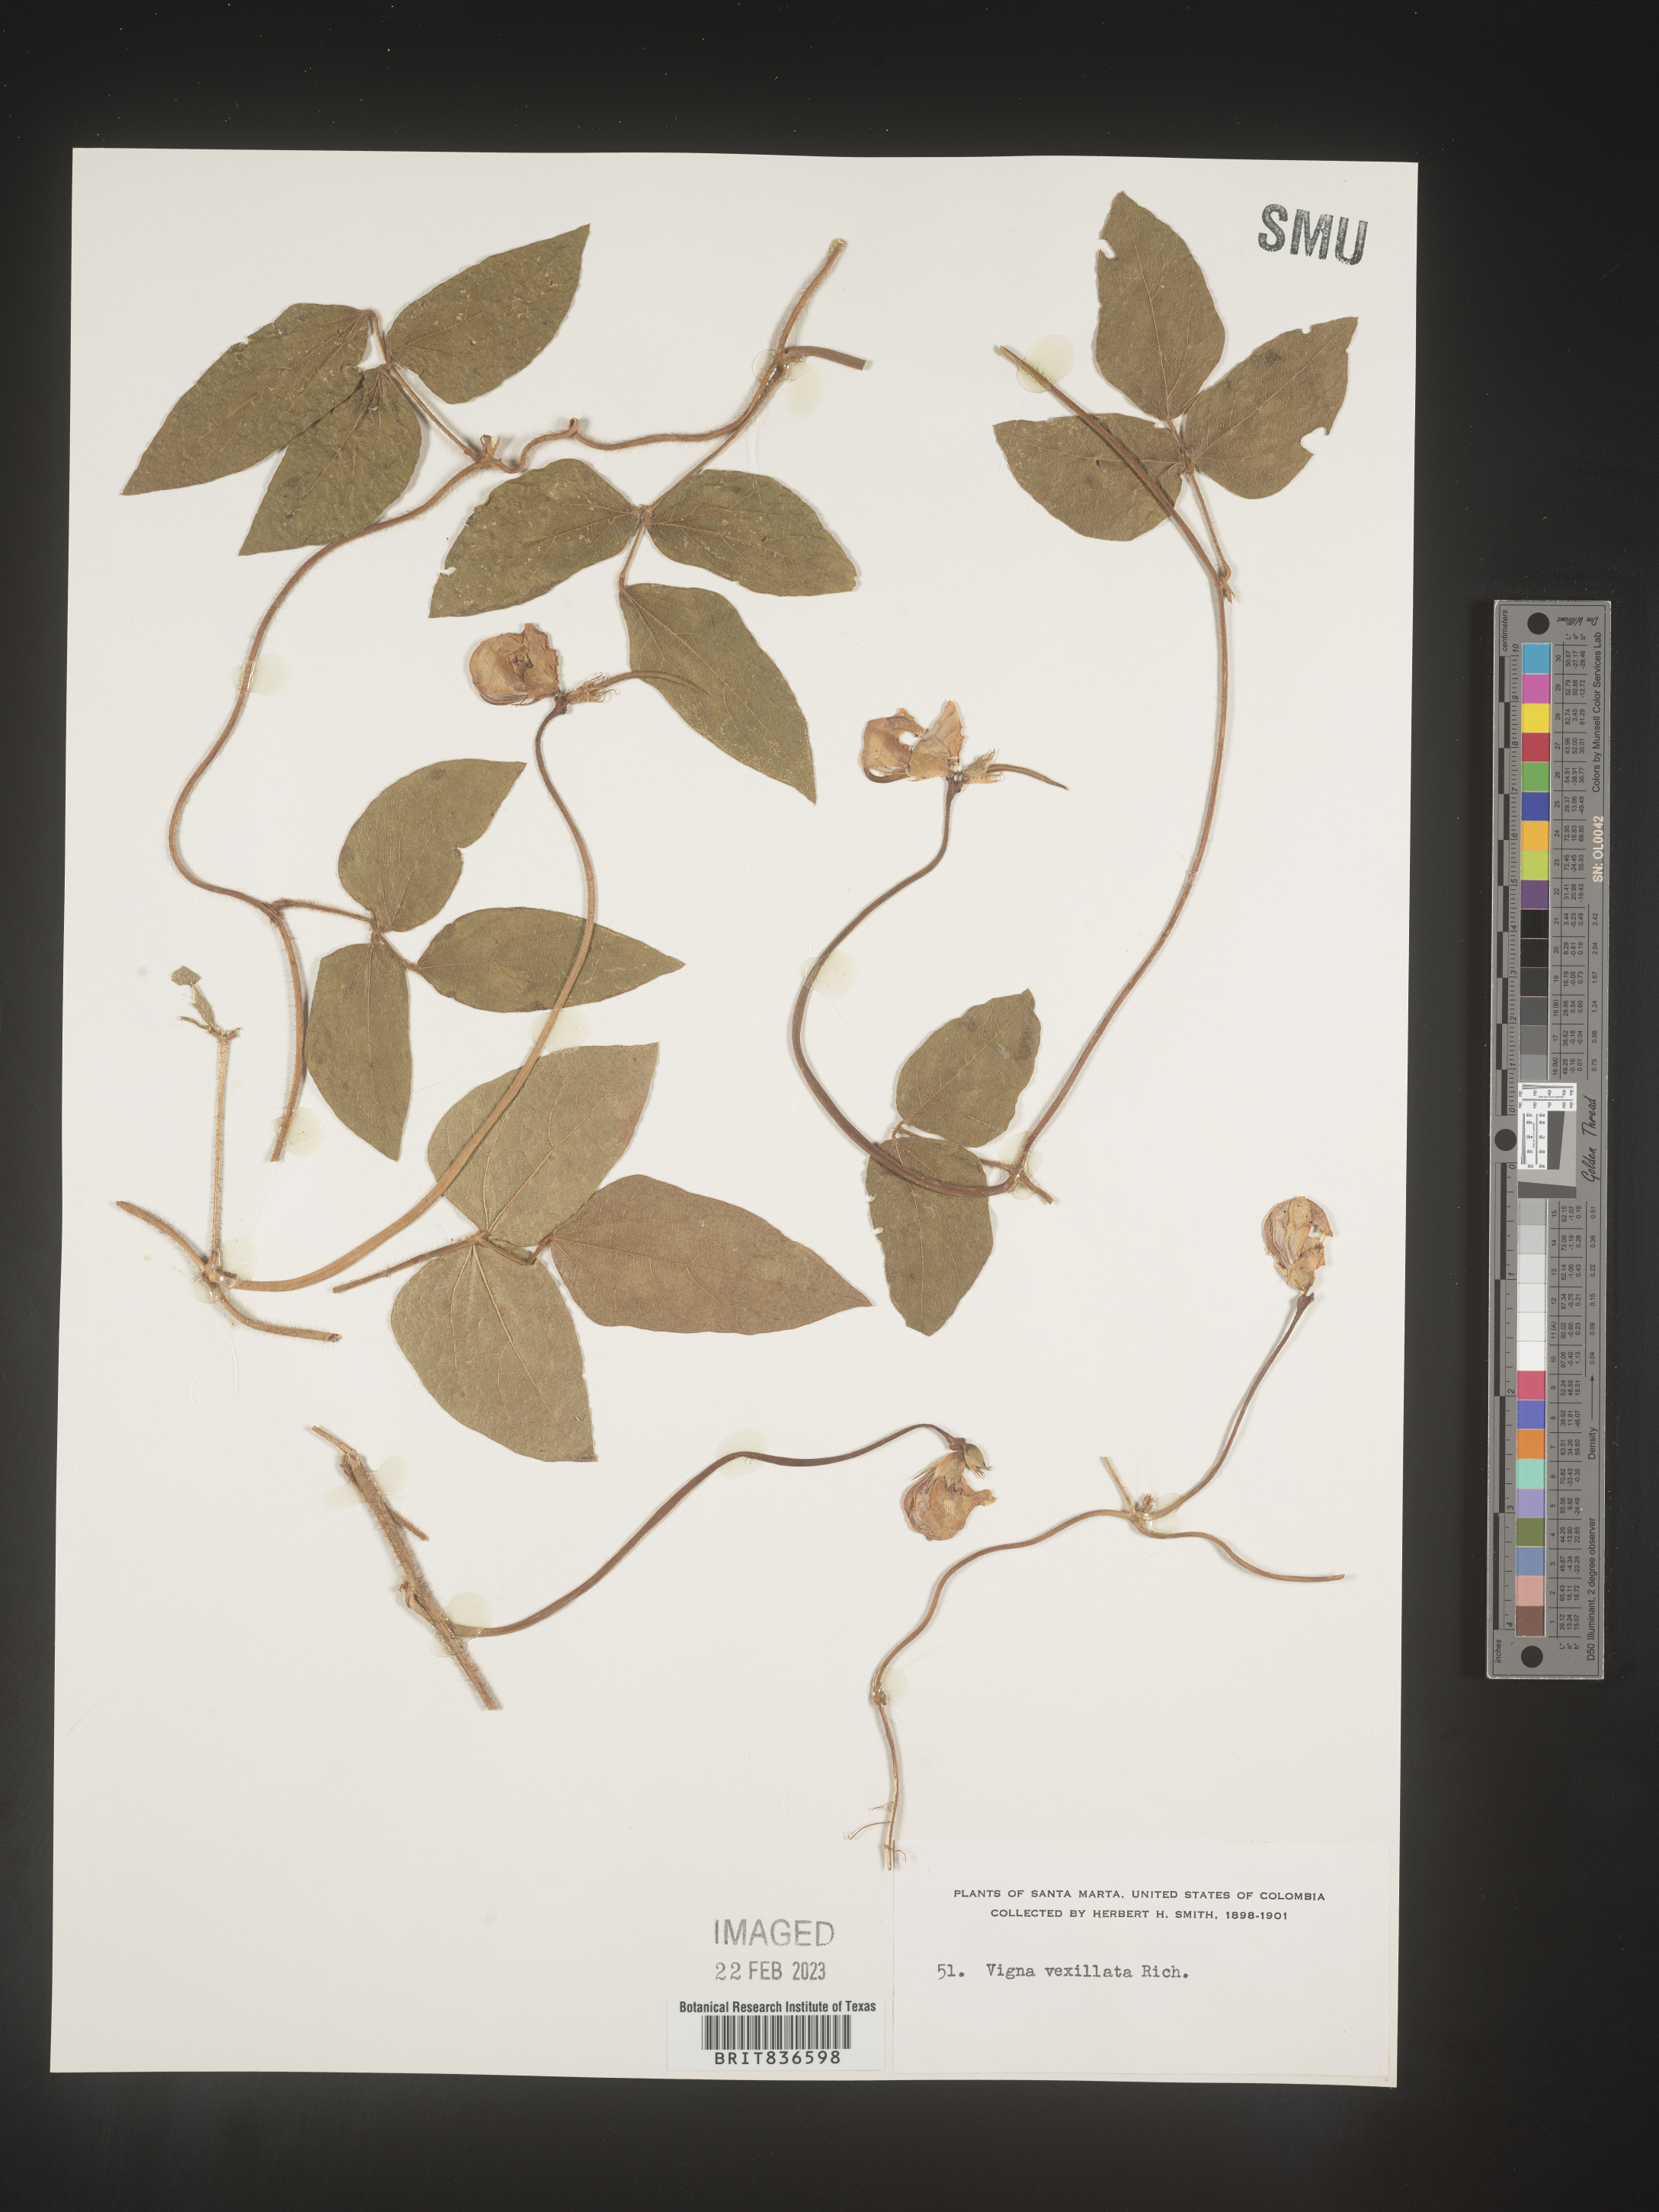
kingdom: Plantae
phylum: Tracheophyta
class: Magnoliopsida
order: Fabales
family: Fabaceae
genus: Vigna
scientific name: Vigna
